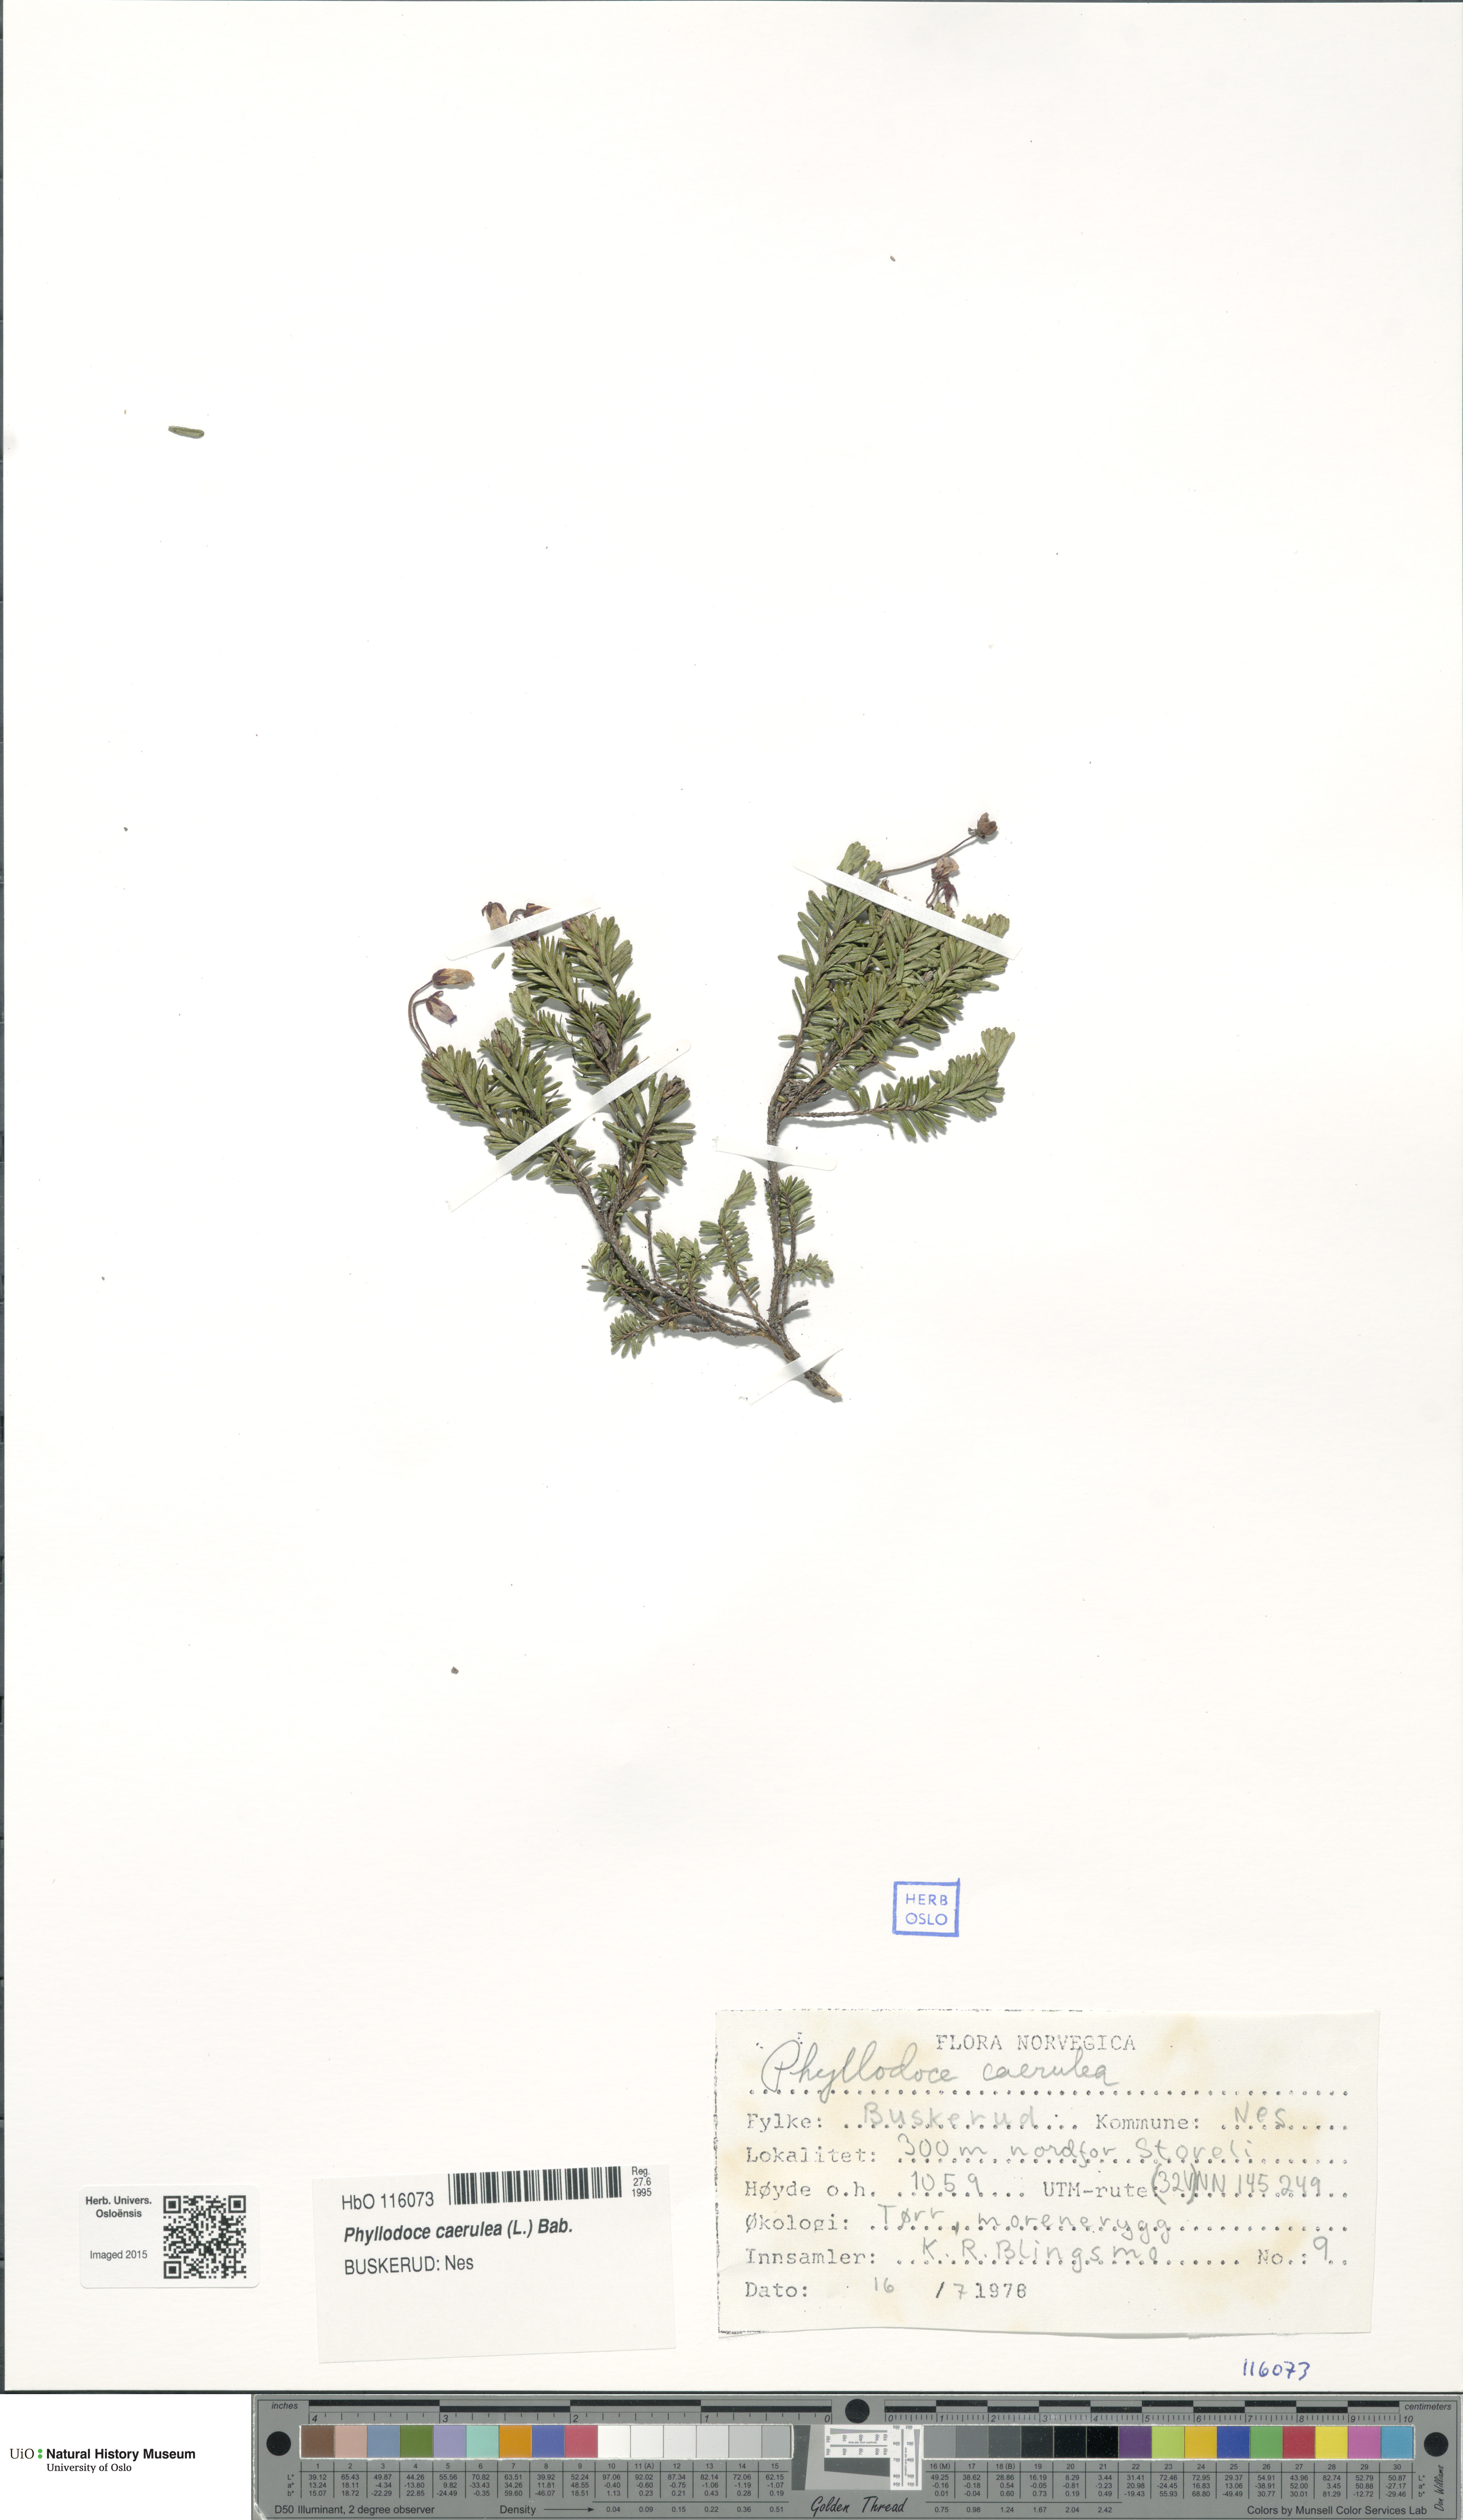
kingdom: Plantae
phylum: Tracheophyta
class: Magnoliopsida
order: Ericales
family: Ericaceae
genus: Phyllodoce
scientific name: Phyllodoce caerulea
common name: Blue heath
